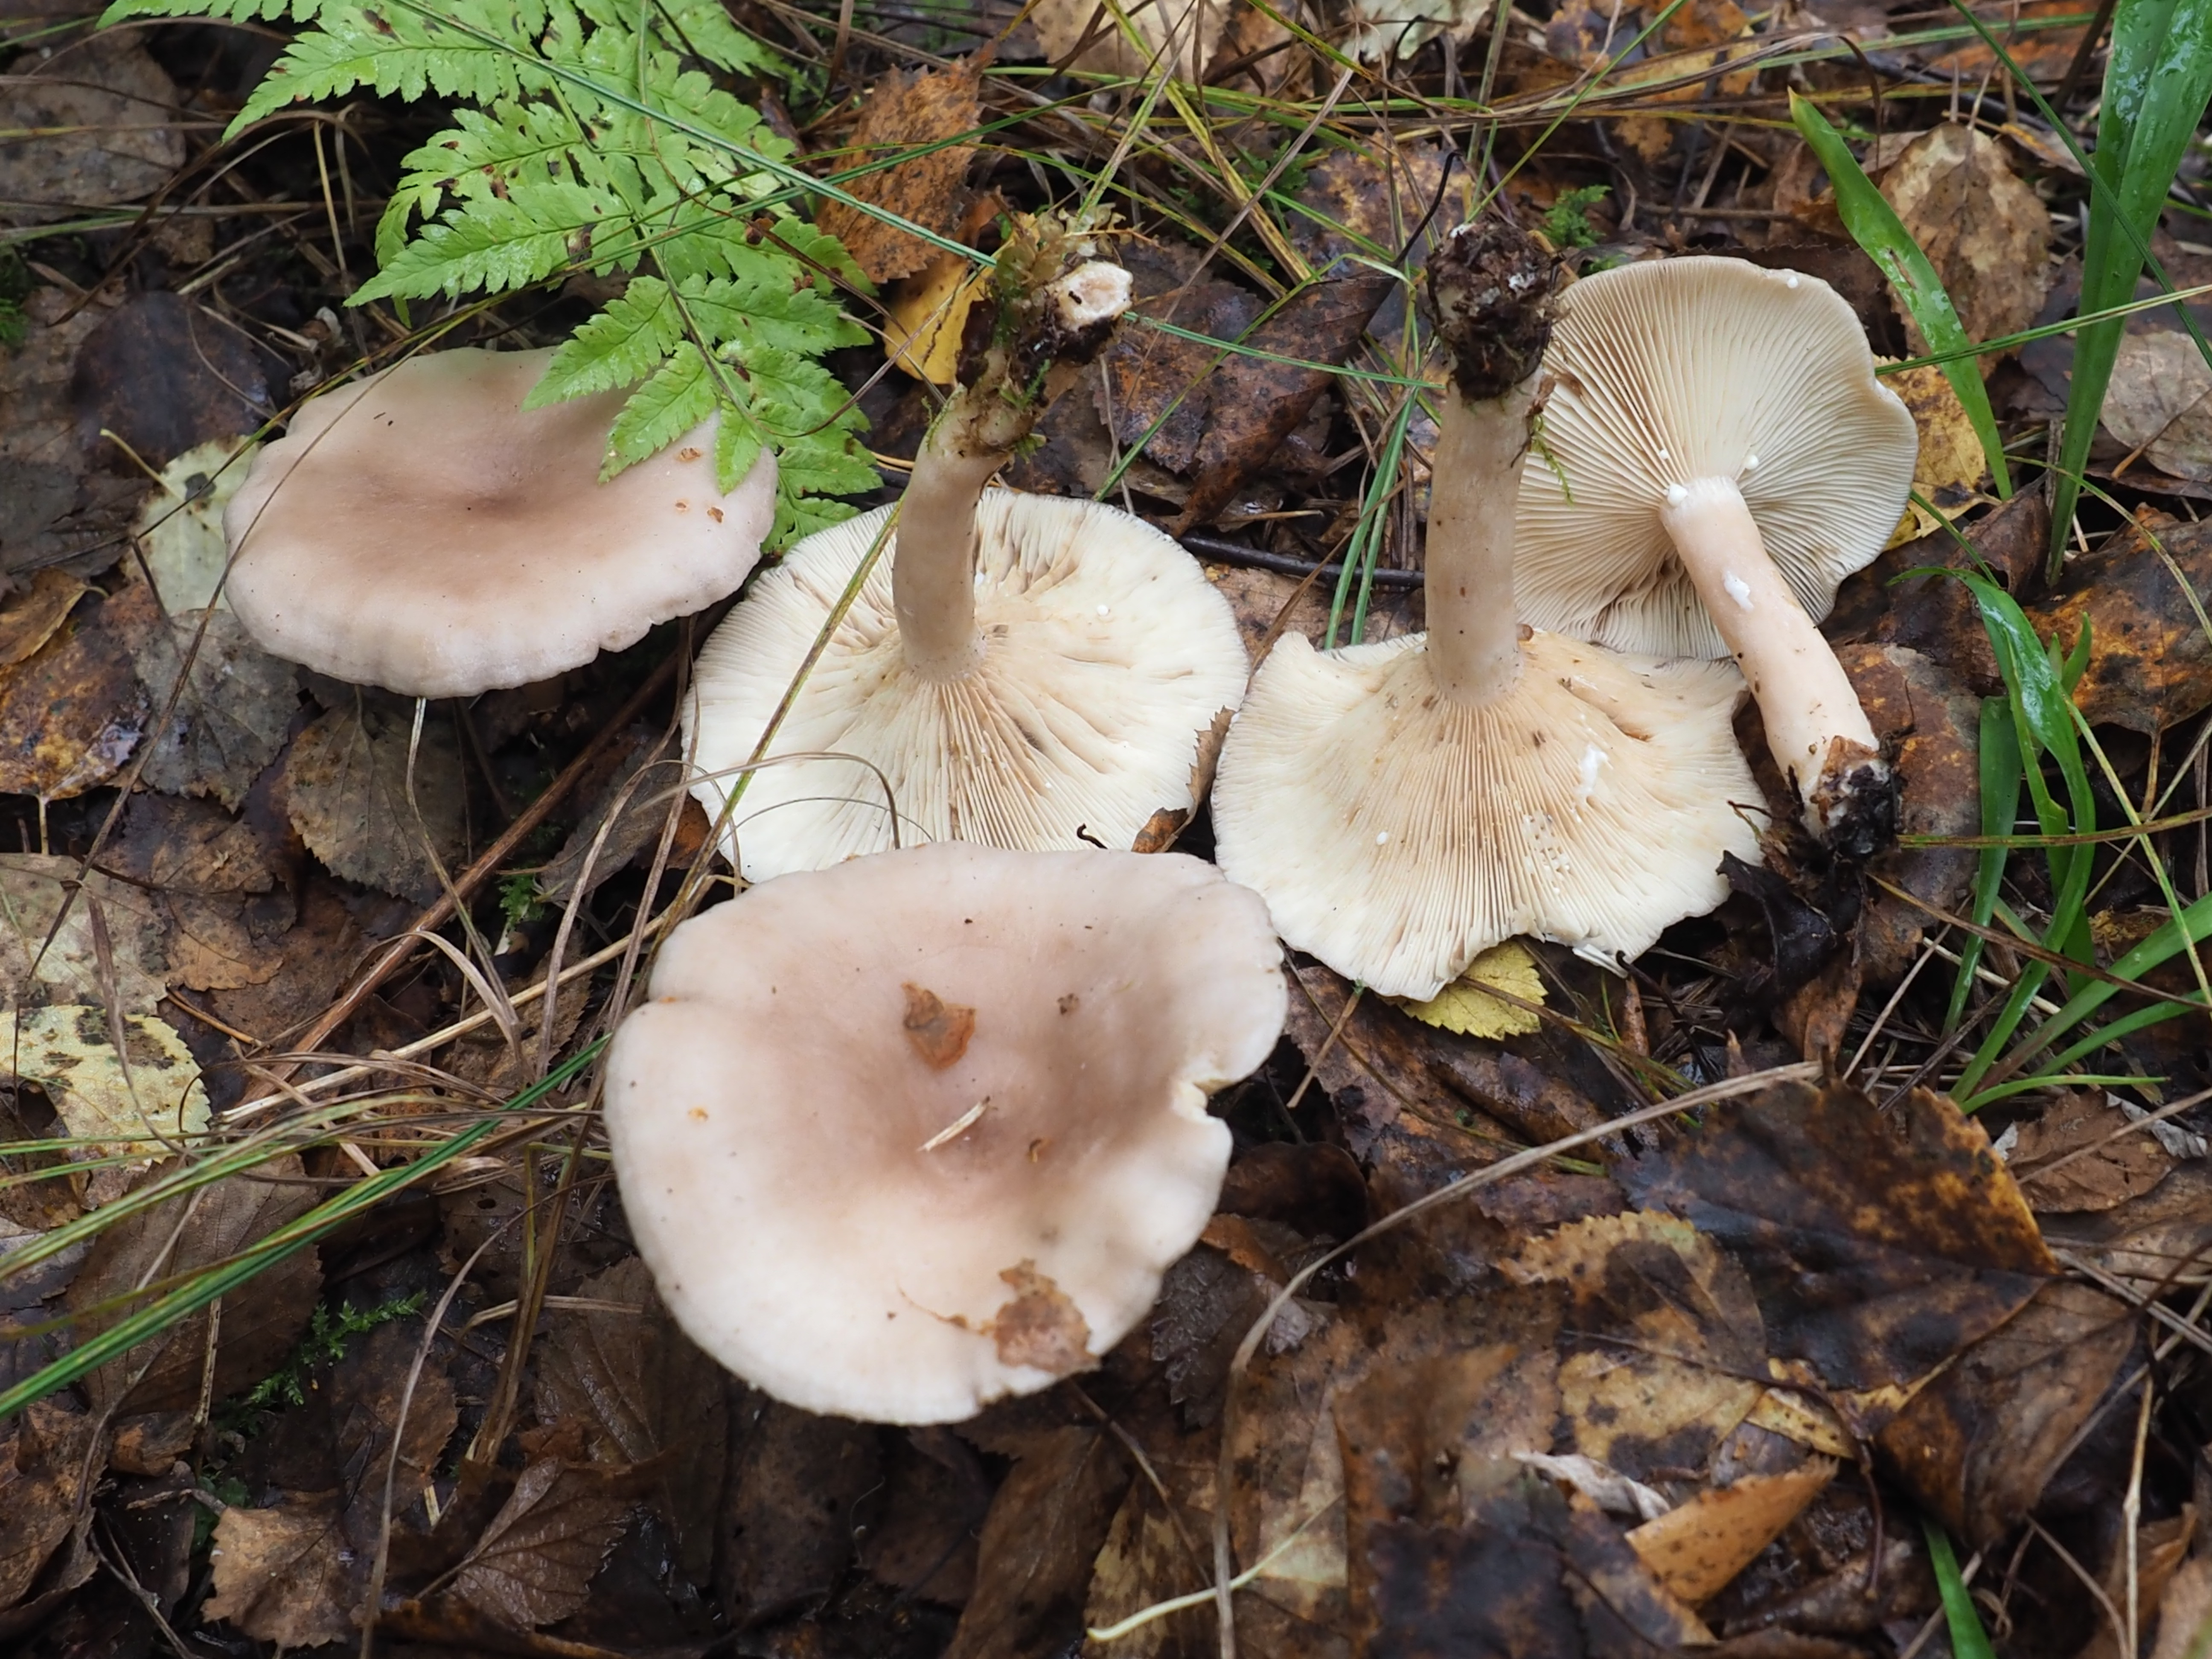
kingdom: Fungi
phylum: Basidiomycota
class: Agaricomycetes
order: Russulales
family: Russulaceae
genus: Lactarius
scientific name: Lactarius glyciosmus
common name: Coconut milkcap
